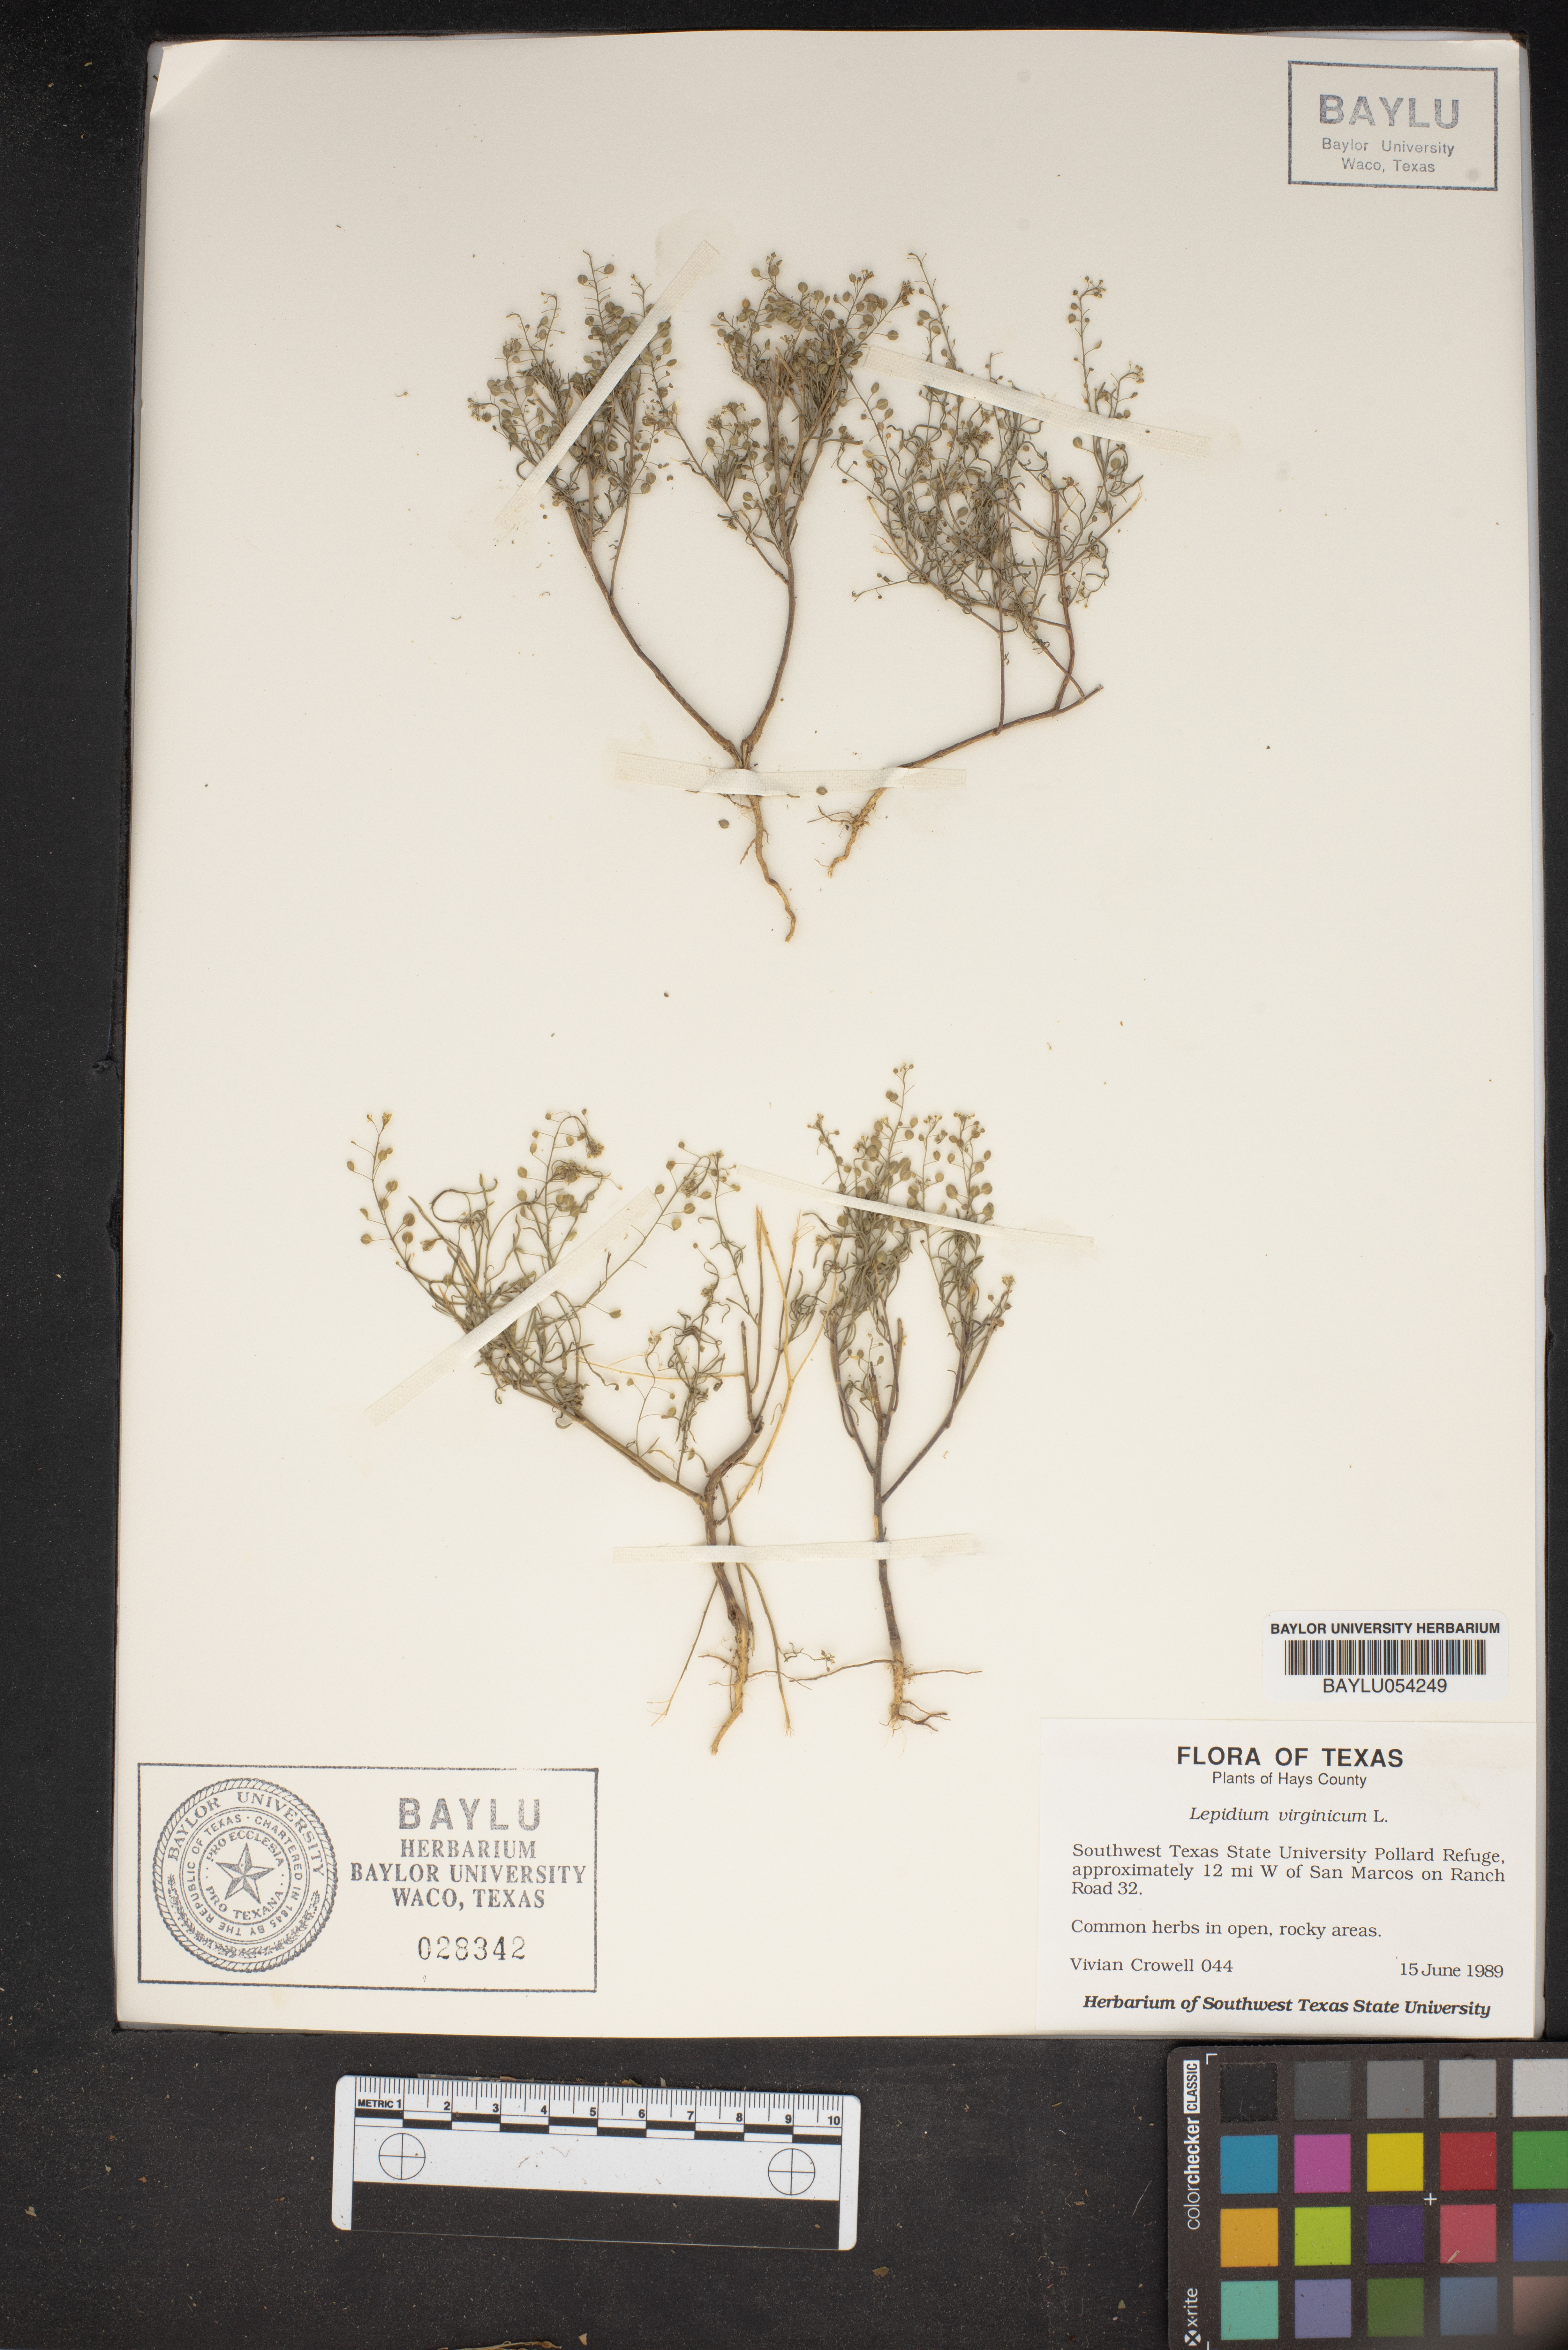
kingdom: Plantae
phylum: Tracheophyta
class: Magnoliopsida
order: Brassicales
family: Brassicaceae
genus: Lepidium
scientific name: Lepidium virginicum
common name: Least pepperwort
